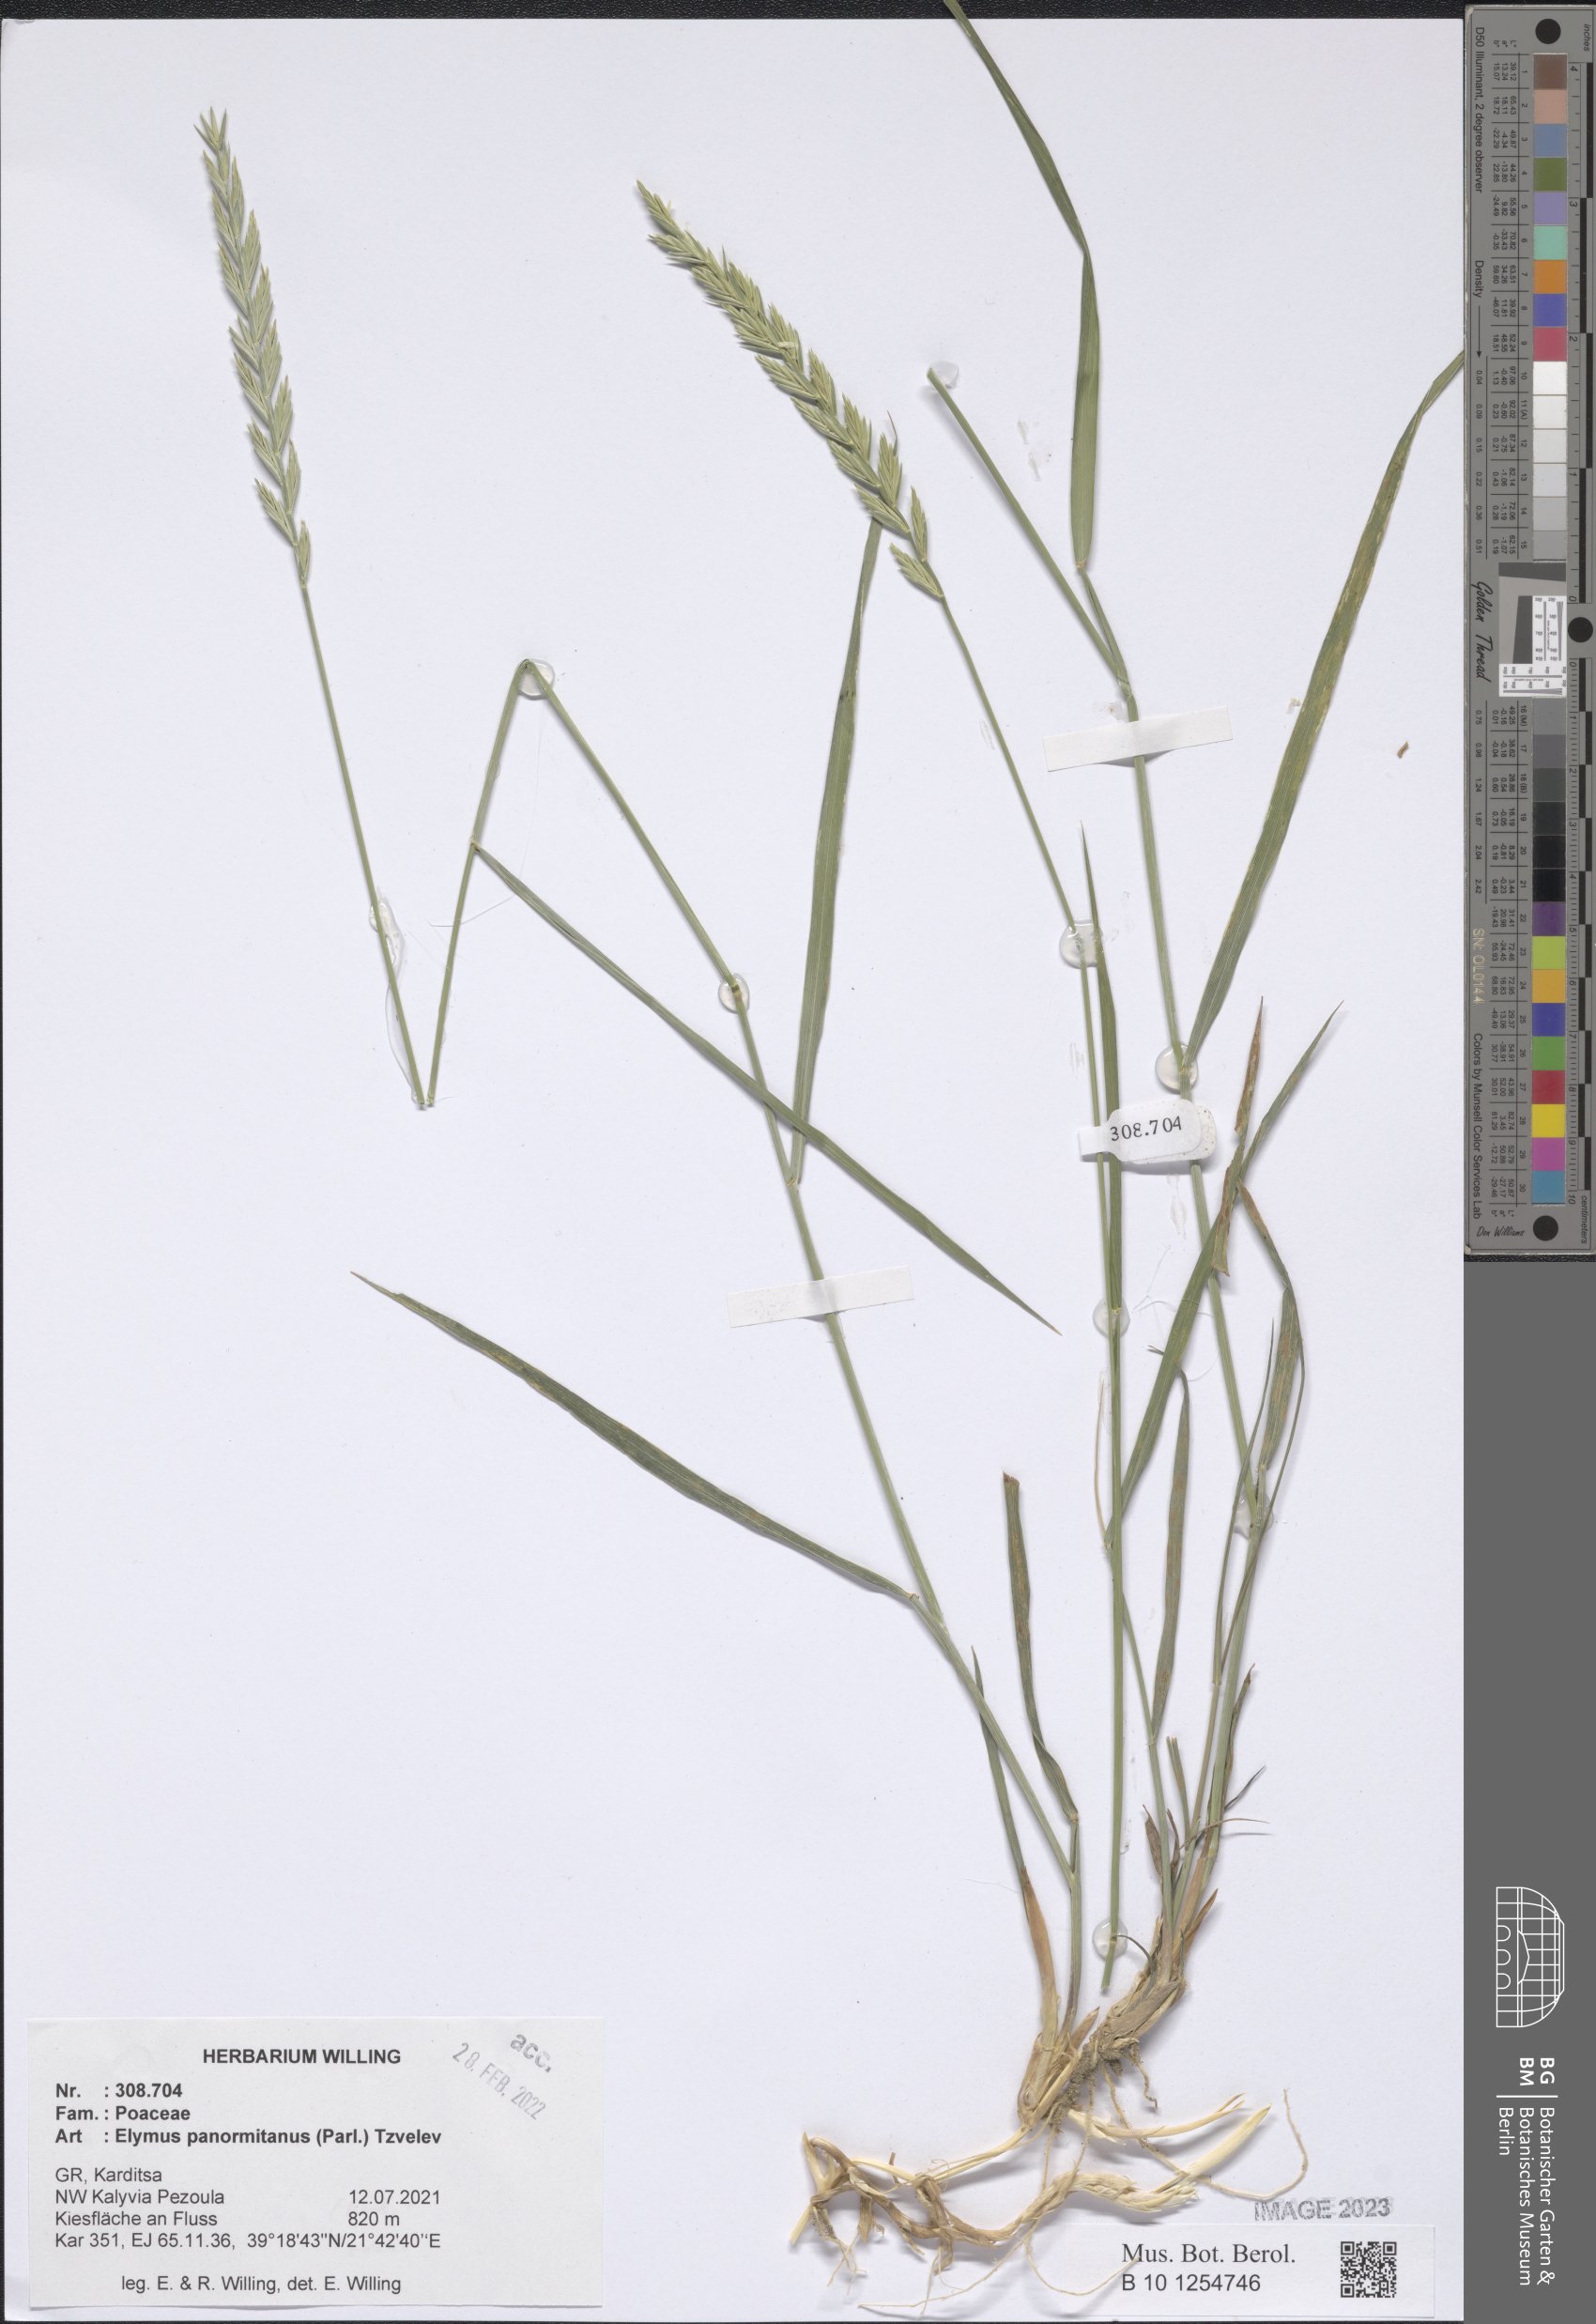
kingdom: Plantae
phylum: Tracheophyta
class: Liliopsida
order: Poales
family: Poaceae
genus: Elymus
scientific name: Elymus panormitanus
